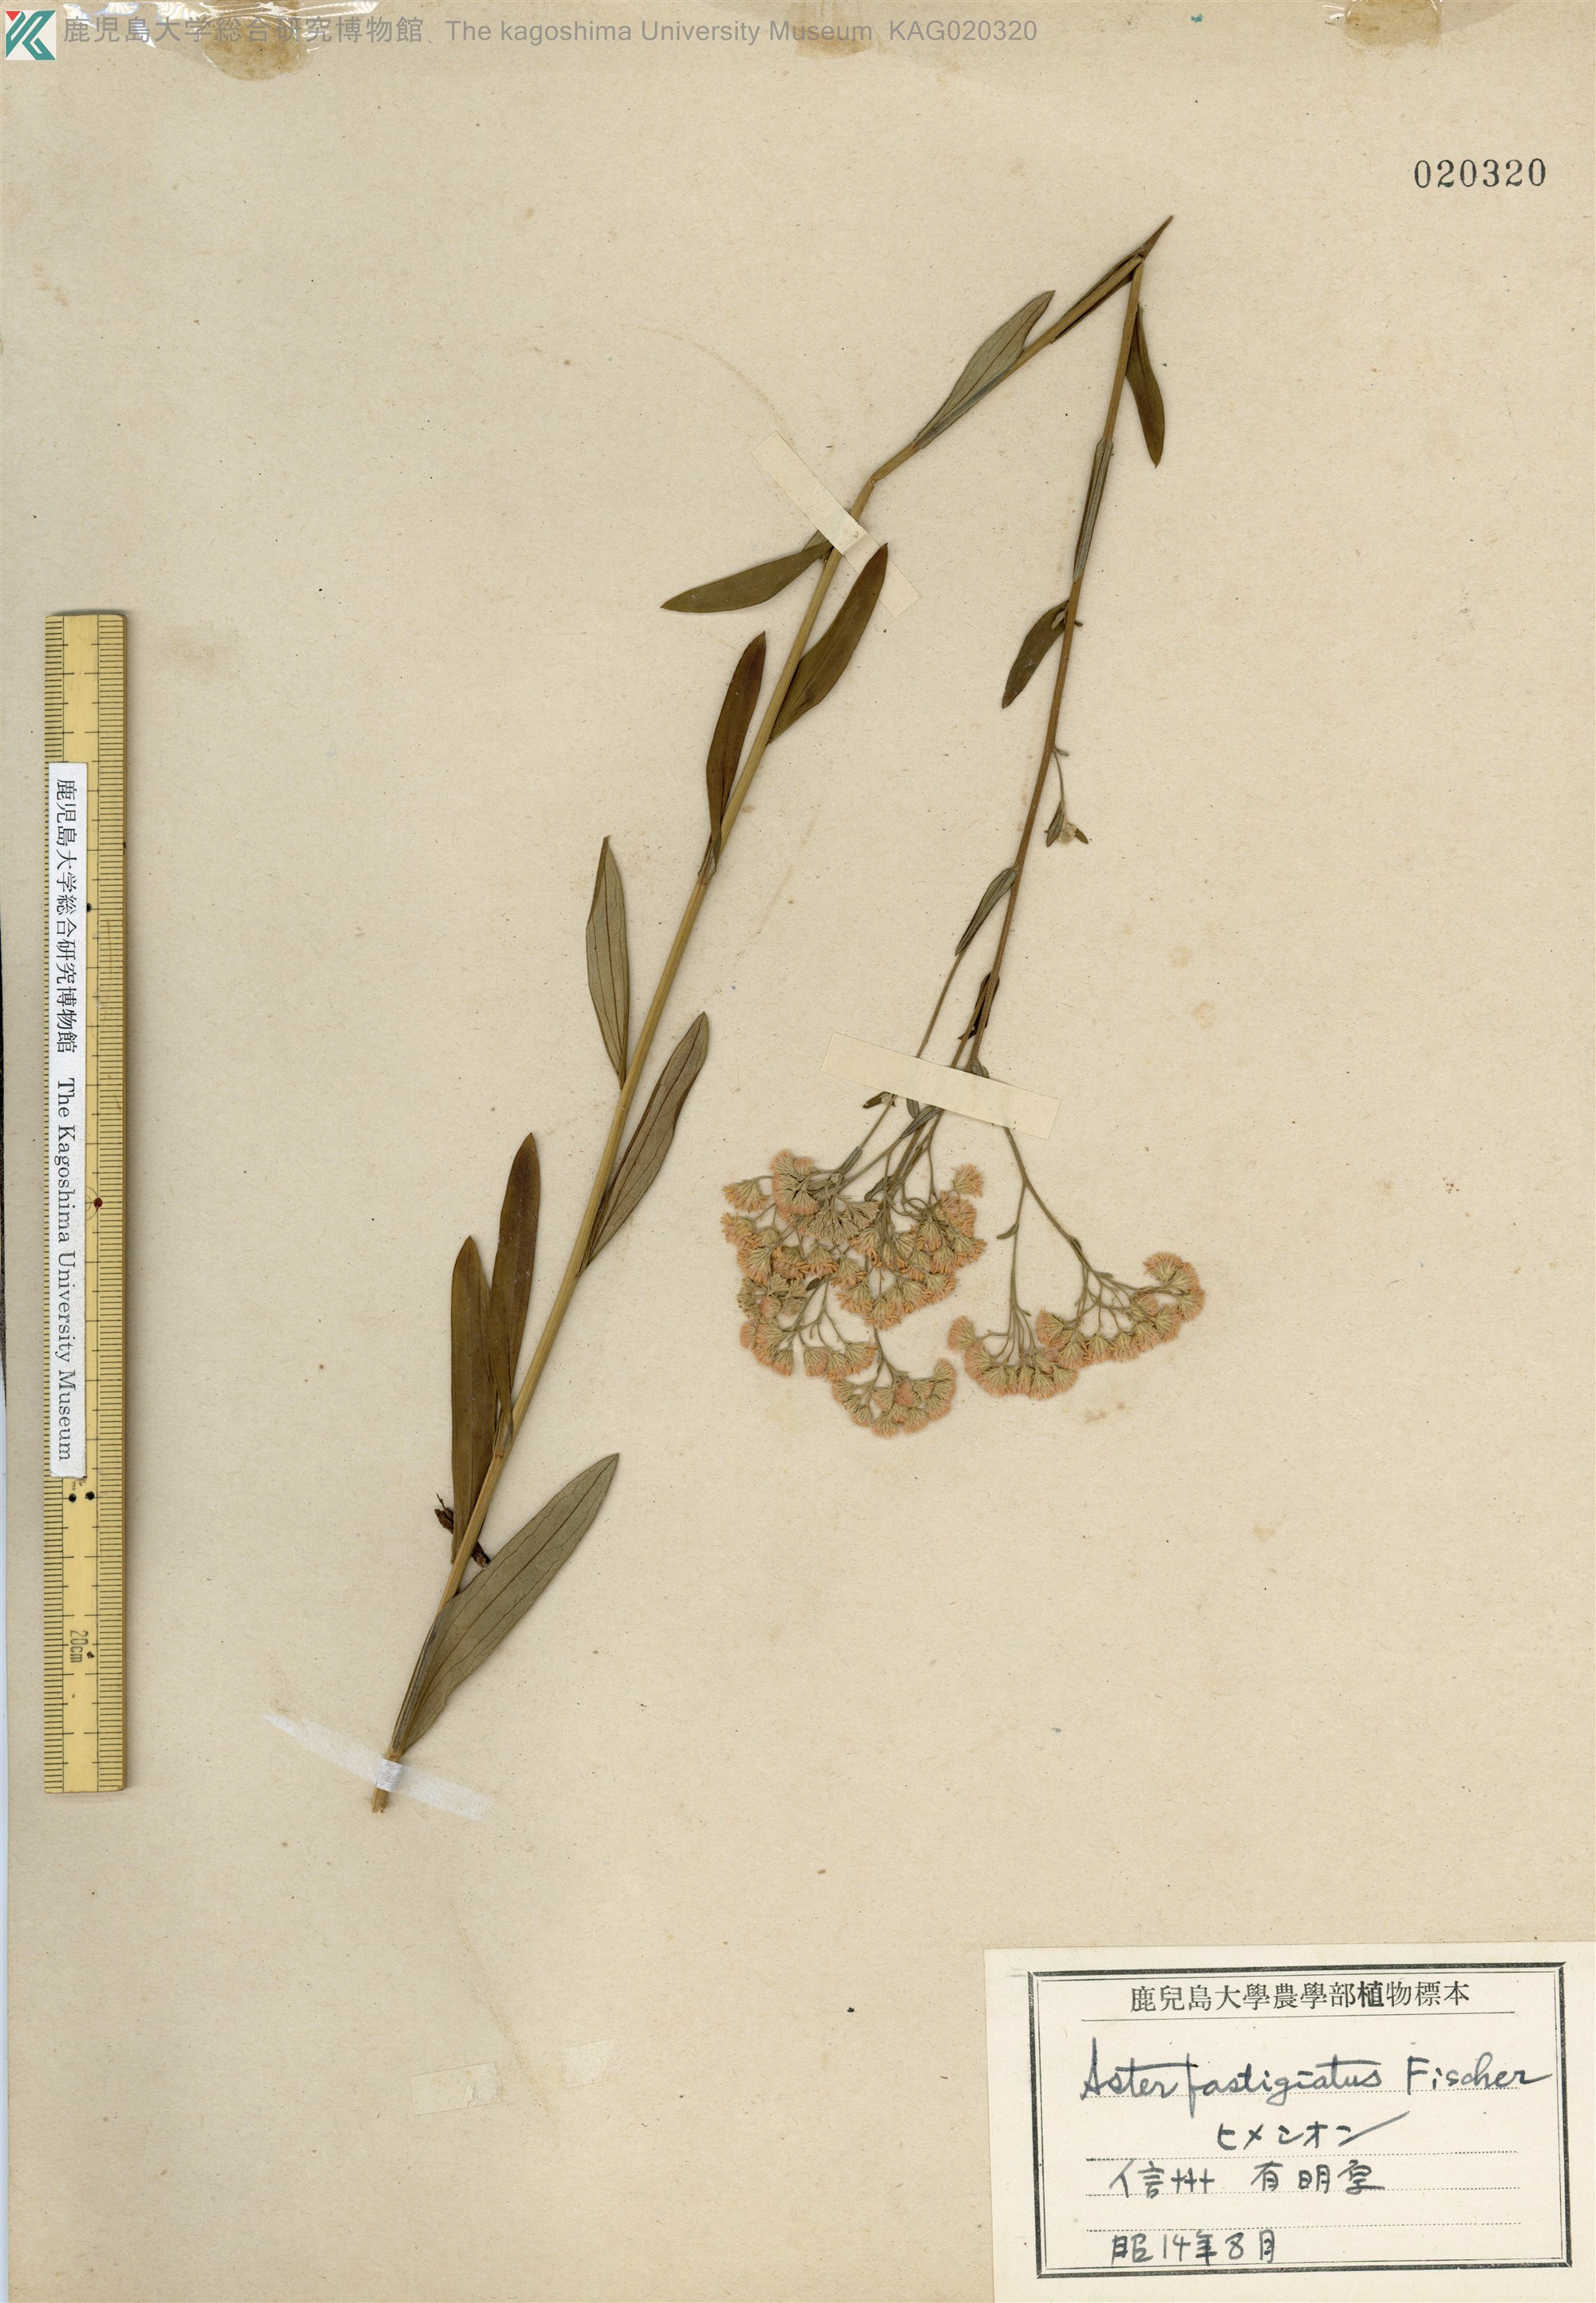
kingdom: Plantae
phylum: Tracheophyta
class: Magnoliopsida
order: Asterales
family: Asteraceae
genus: Turczaninovia
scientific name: Turczaninovia fastigiata
